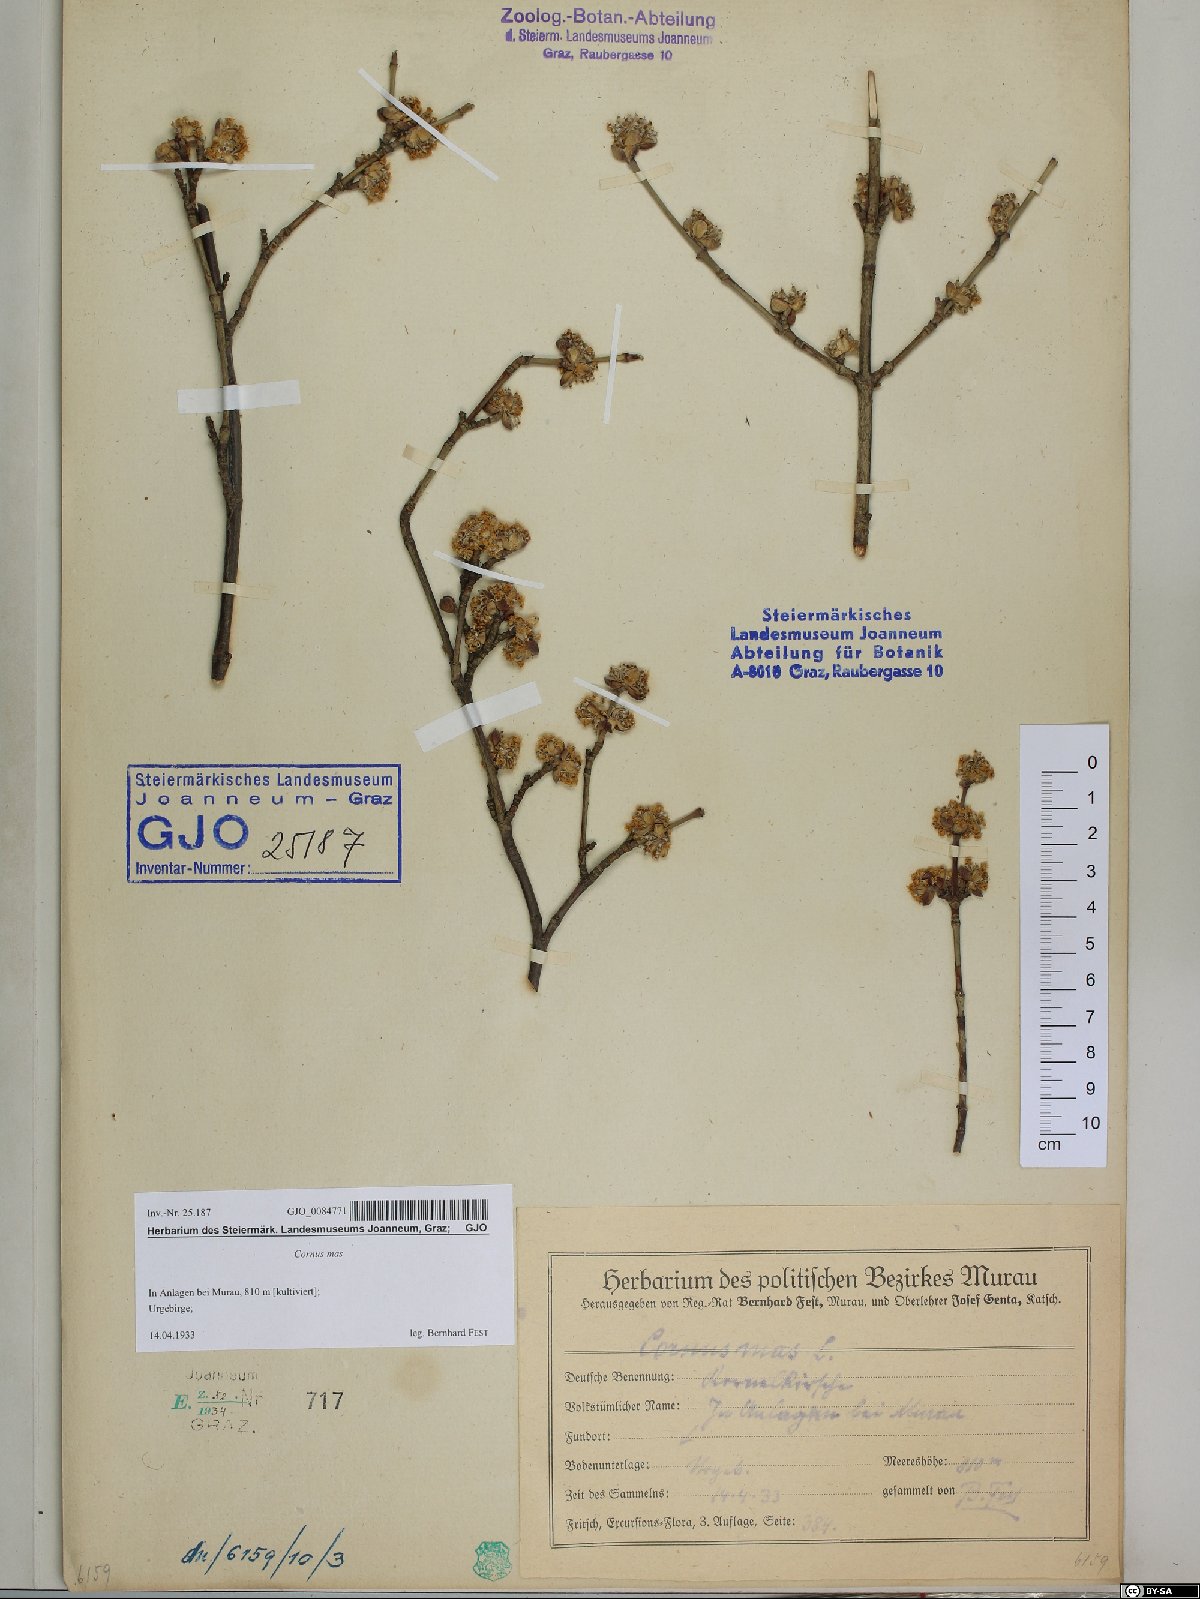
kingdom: Plantae
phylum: Tracheophyta
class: Magnoliopsida
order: Cornales
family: Cornaceae
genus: Cornus
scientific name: Cornus mas
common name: Cornelian-cherry
